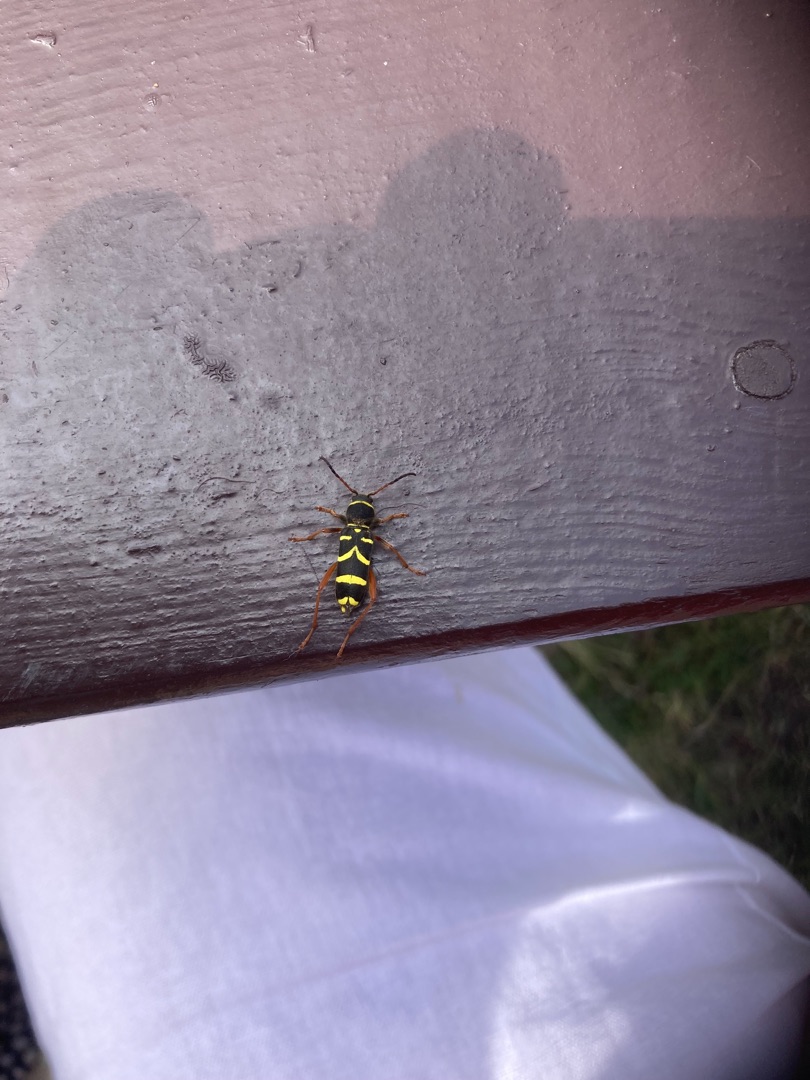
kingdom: Animalia
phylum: Arthropoda
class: Insecta
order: Coleoptera
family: Cerambycidae
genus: Clytus
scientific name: Clytus arietis
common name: Lille hvepsebuk
